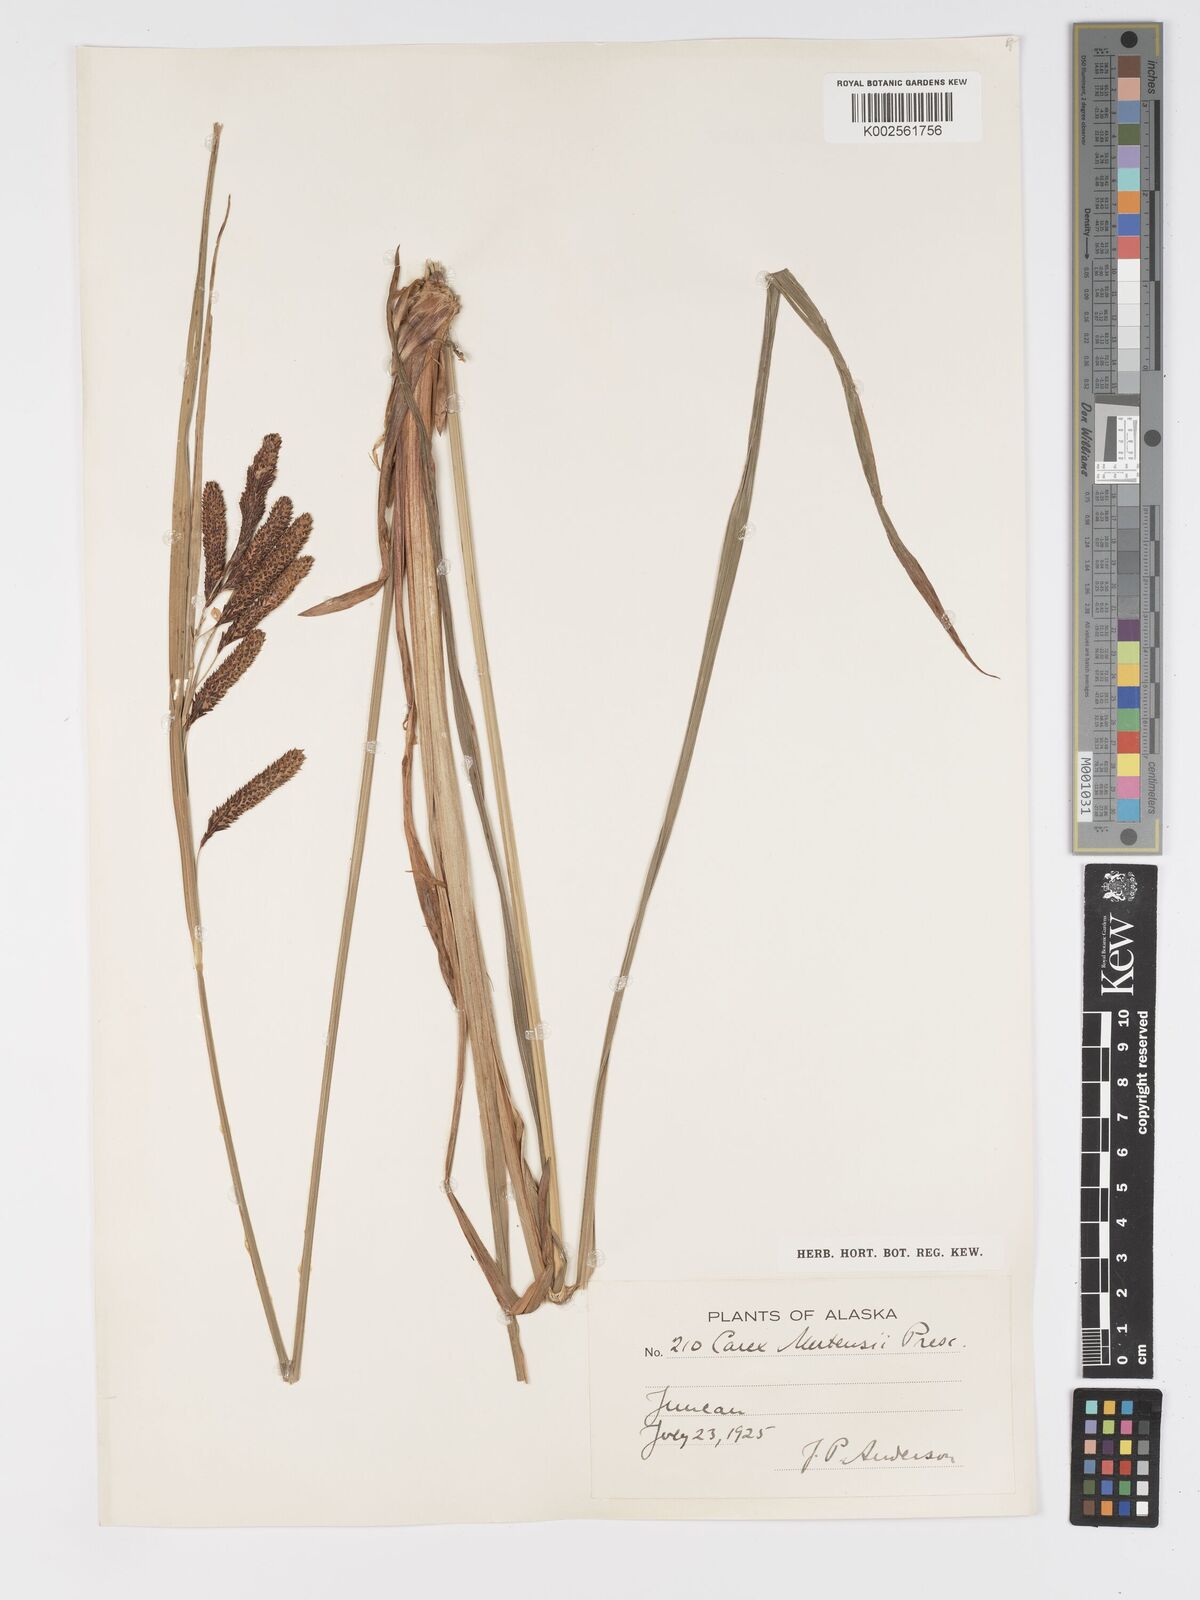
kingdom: Plantae
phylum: Tracheophyta
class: Liliopsida
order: Poales
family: Cyperaceae
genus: Carex
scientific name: Carex mertensii
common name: Mertens' sedge
